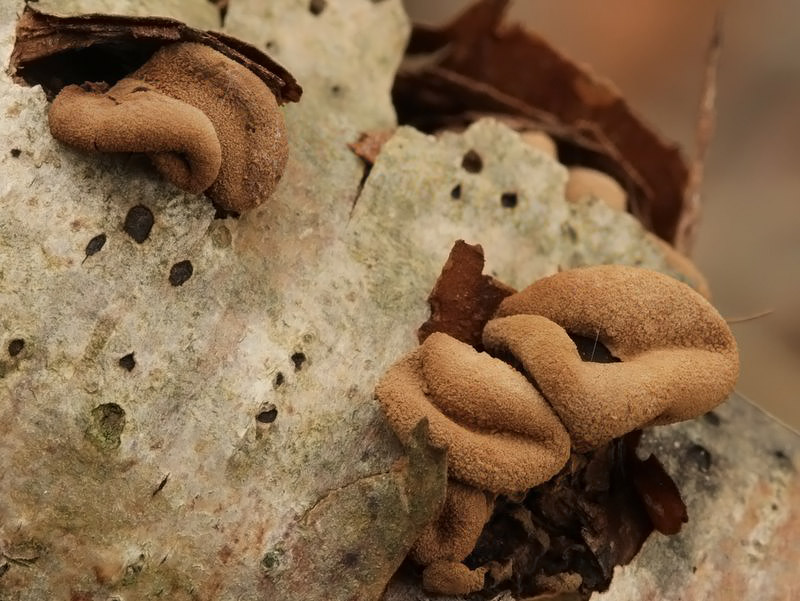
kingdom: Fungi
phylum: Ascomycota
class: Leotiomycetes
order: Helotiales
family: Cenangiaceae
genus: Encoelia
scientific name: Encoelia furfuracea
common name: hassel-læderskive
